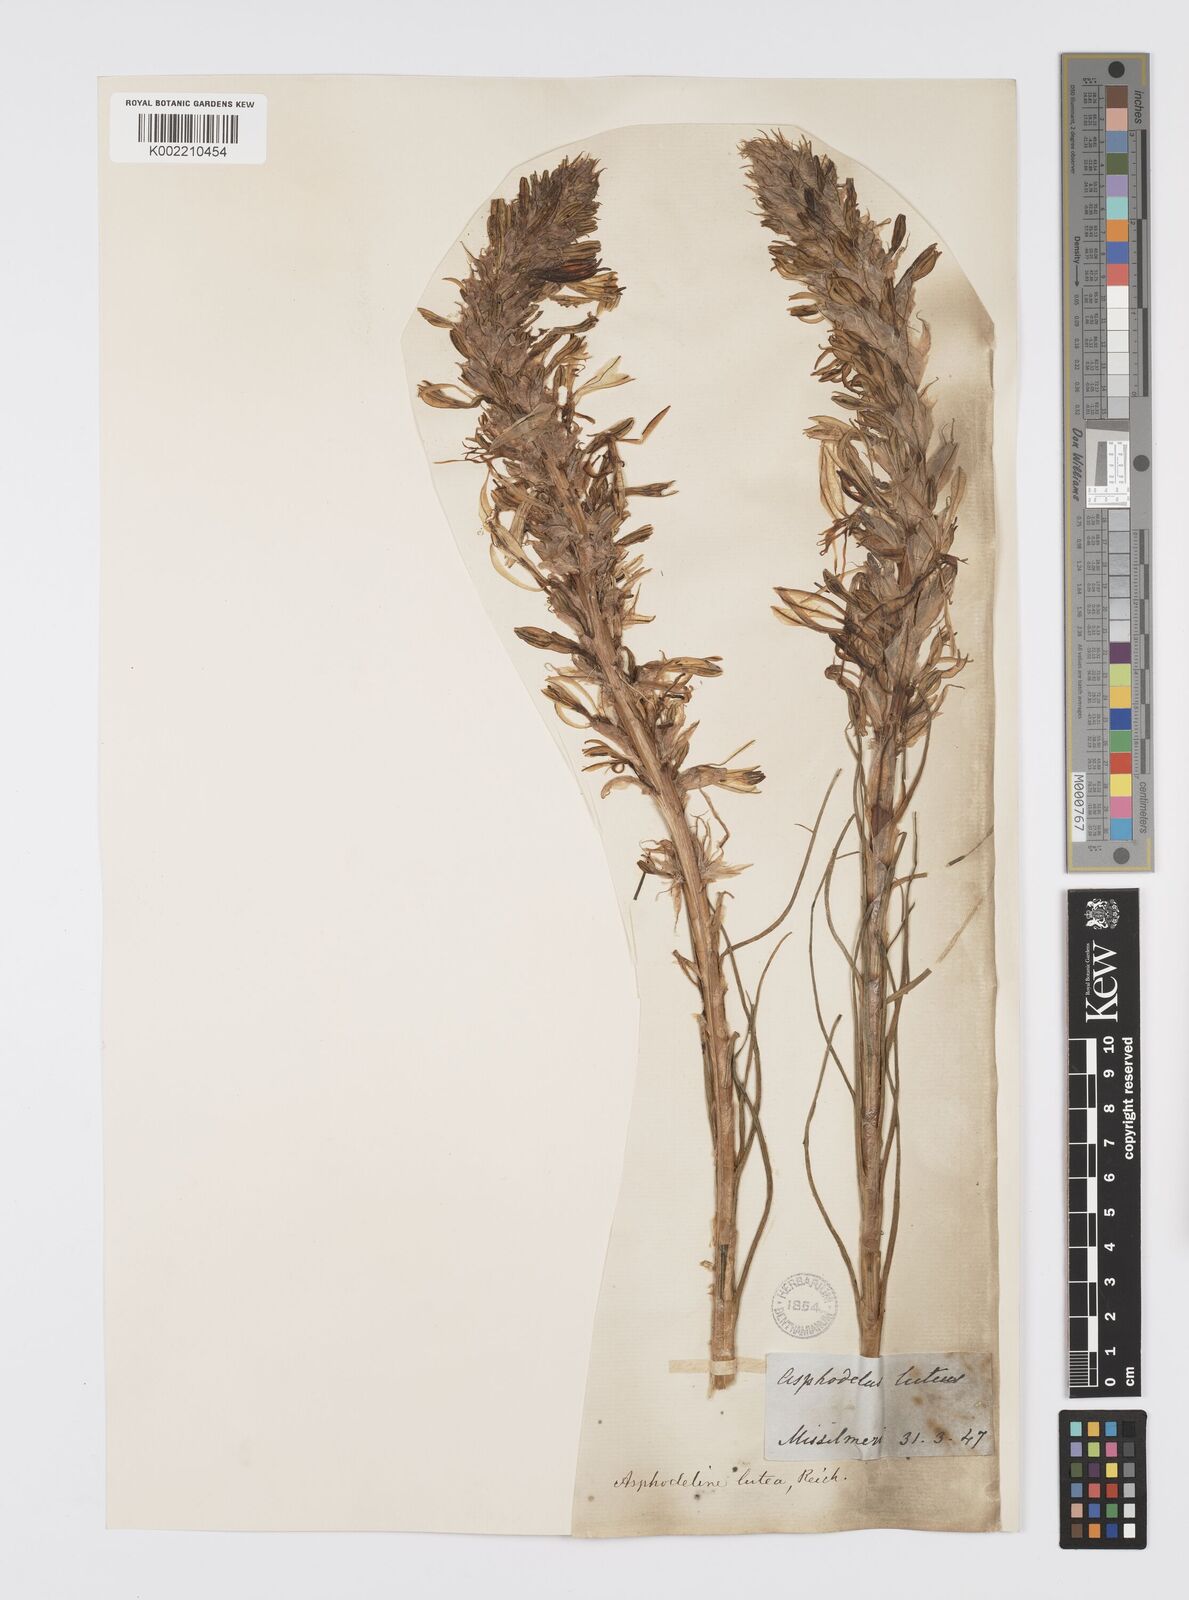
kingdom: Plantae
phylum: Tracheophyta
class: Liliopsida
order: Asparagales
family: Asphodelaceae
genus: Asphodeline
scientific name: Asphodeline lutea
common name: Yellow asphodel
